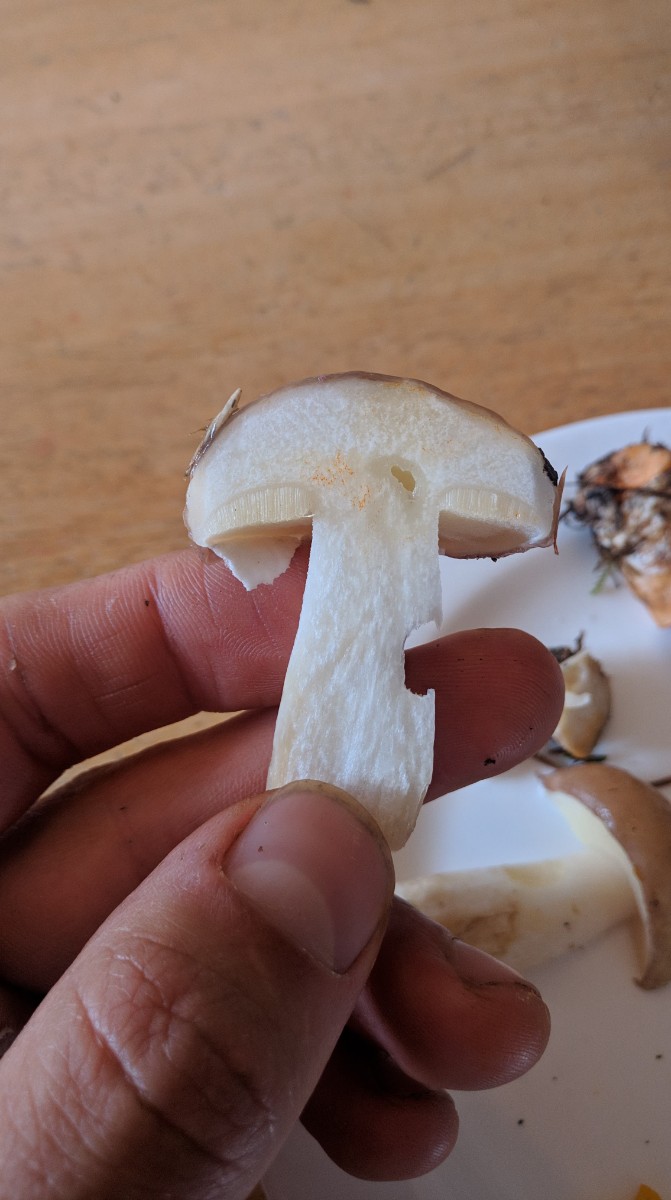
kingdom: Fungi
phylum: Basidiomycota
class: Agaricomycetes
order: Boletales
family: Suillaceae
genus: Suillus
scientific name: Suillus luteus
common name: brungul slimrørhat
